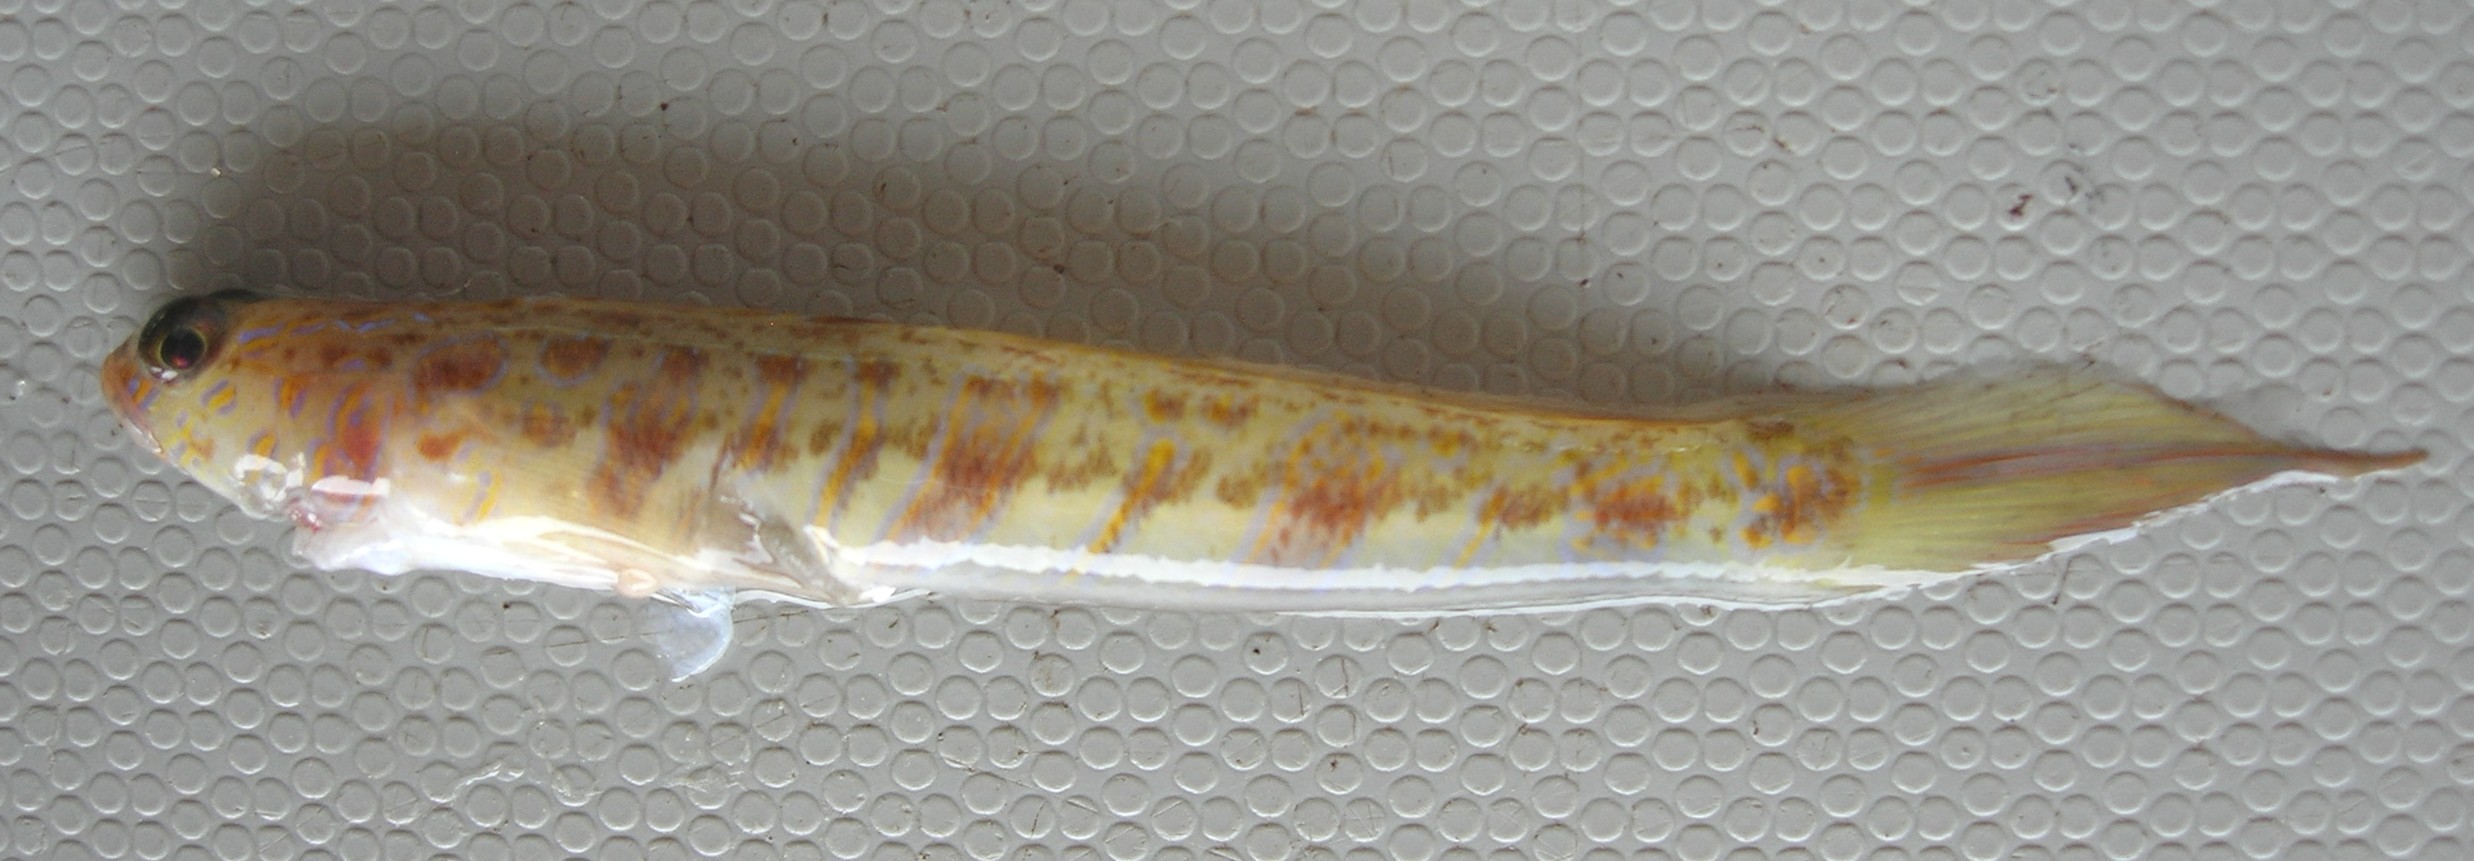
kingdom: Animalia
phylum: Chordata
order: Perciformes
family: Gobiidae
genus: Vanderhorstia
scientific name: Vanderhorstia delagoae
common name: Candystick goby
